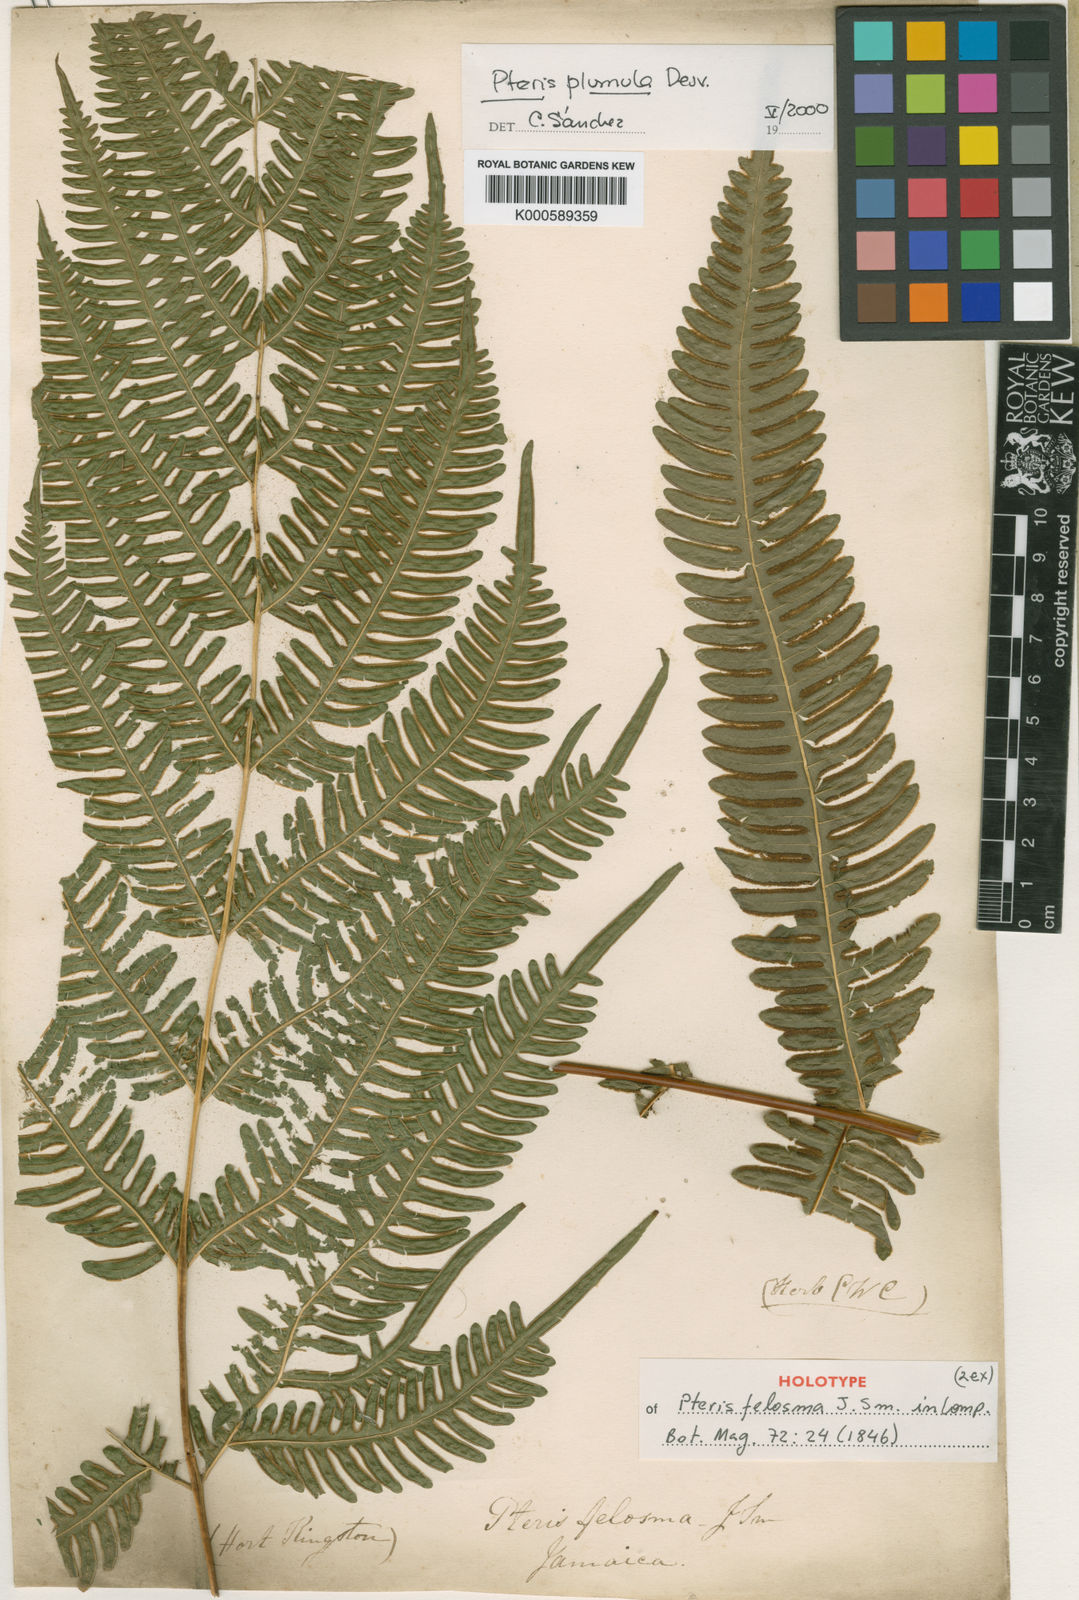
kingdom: Plantae
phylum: Tracheophyta
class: Polypodiopsida
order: Polypodiales
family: Pteridaceae
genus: Pteris
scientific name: Pteris quadriaurita
